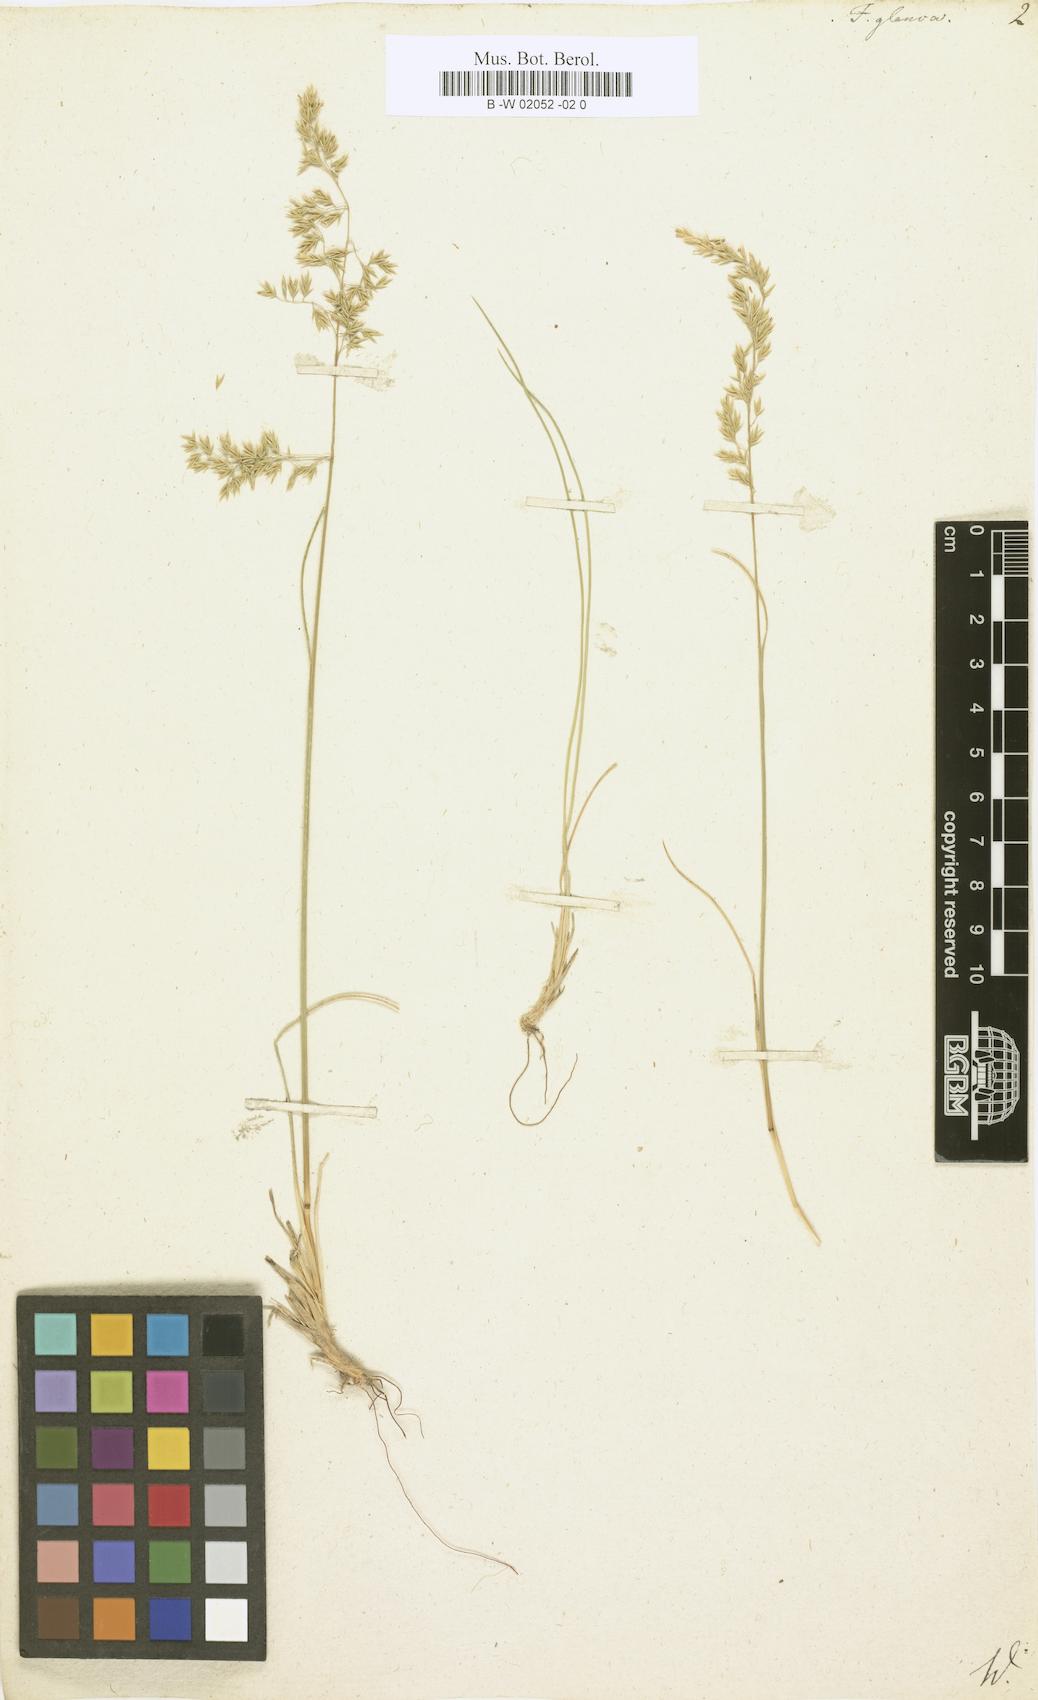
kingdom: Plantae
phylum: Tracheophyta
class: Liliopsida
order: Poales
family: Poaceae
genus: Festuca
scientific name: Festuca glauca
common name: Blue fescue
